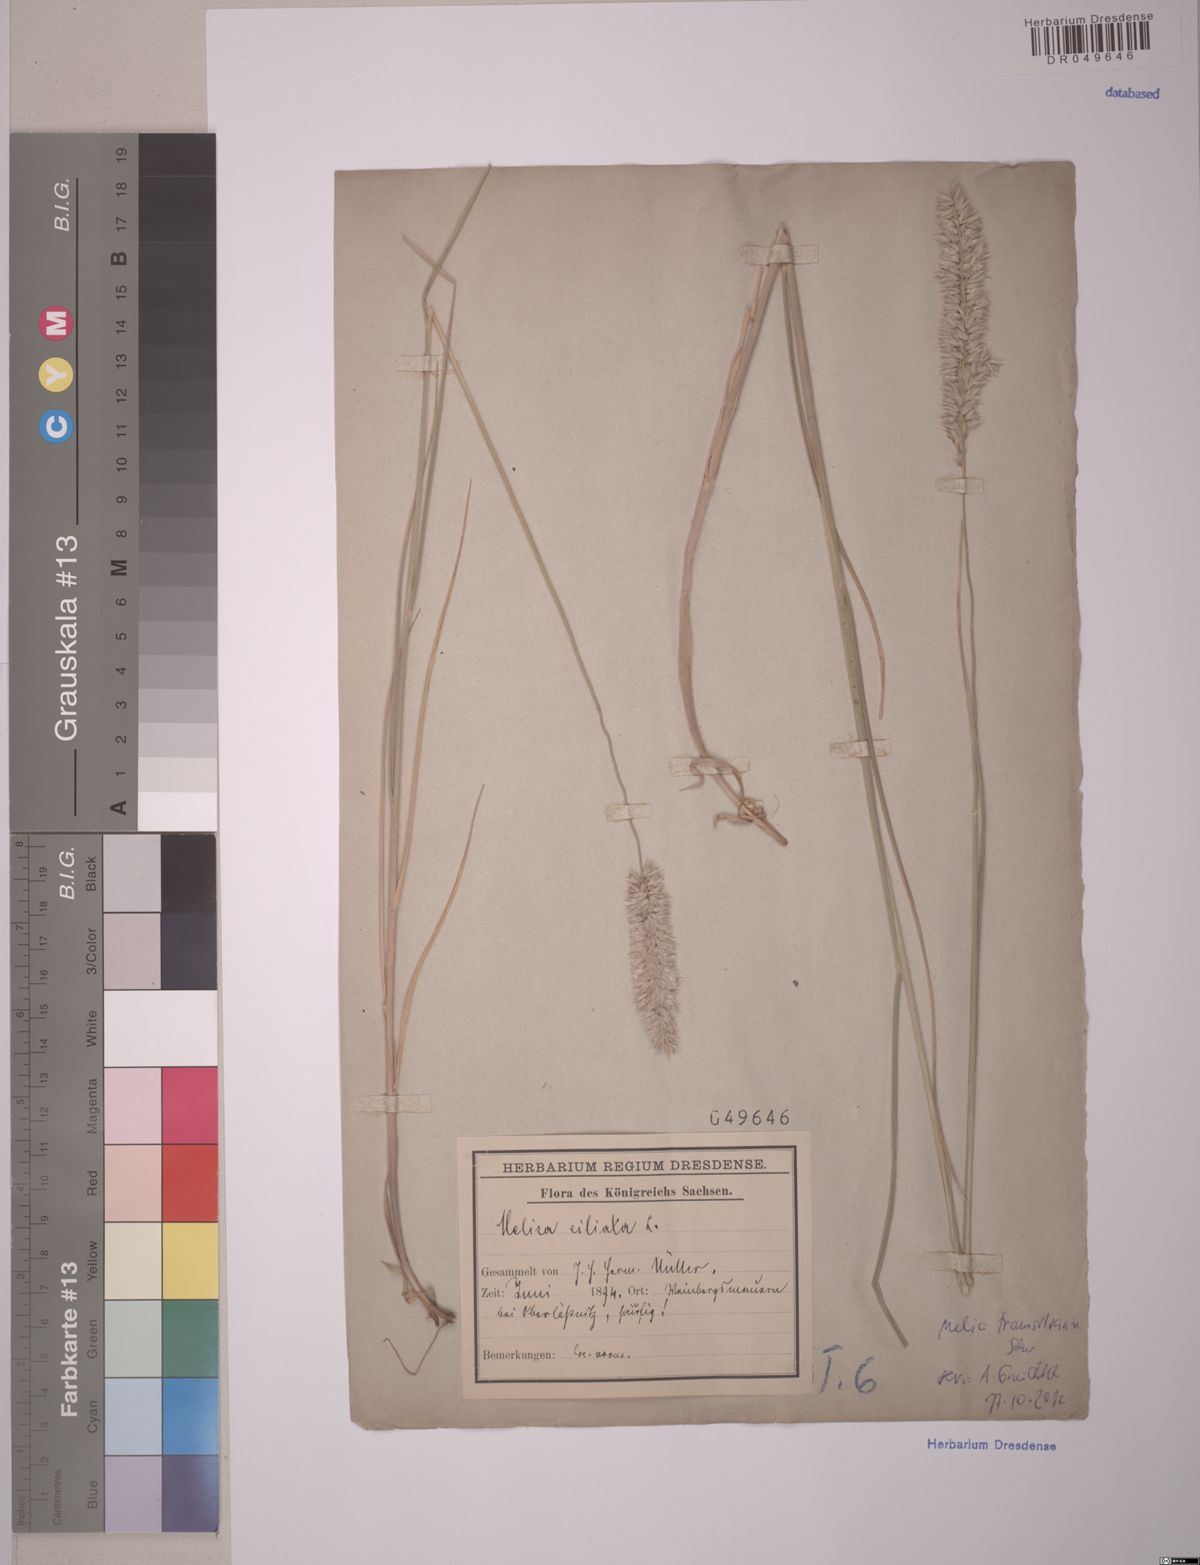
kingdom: Plantae
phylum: Tracheophyta
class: Liliopsida
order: Poales
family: Poaceae
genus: Melica
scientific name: Melica transsilvanica
